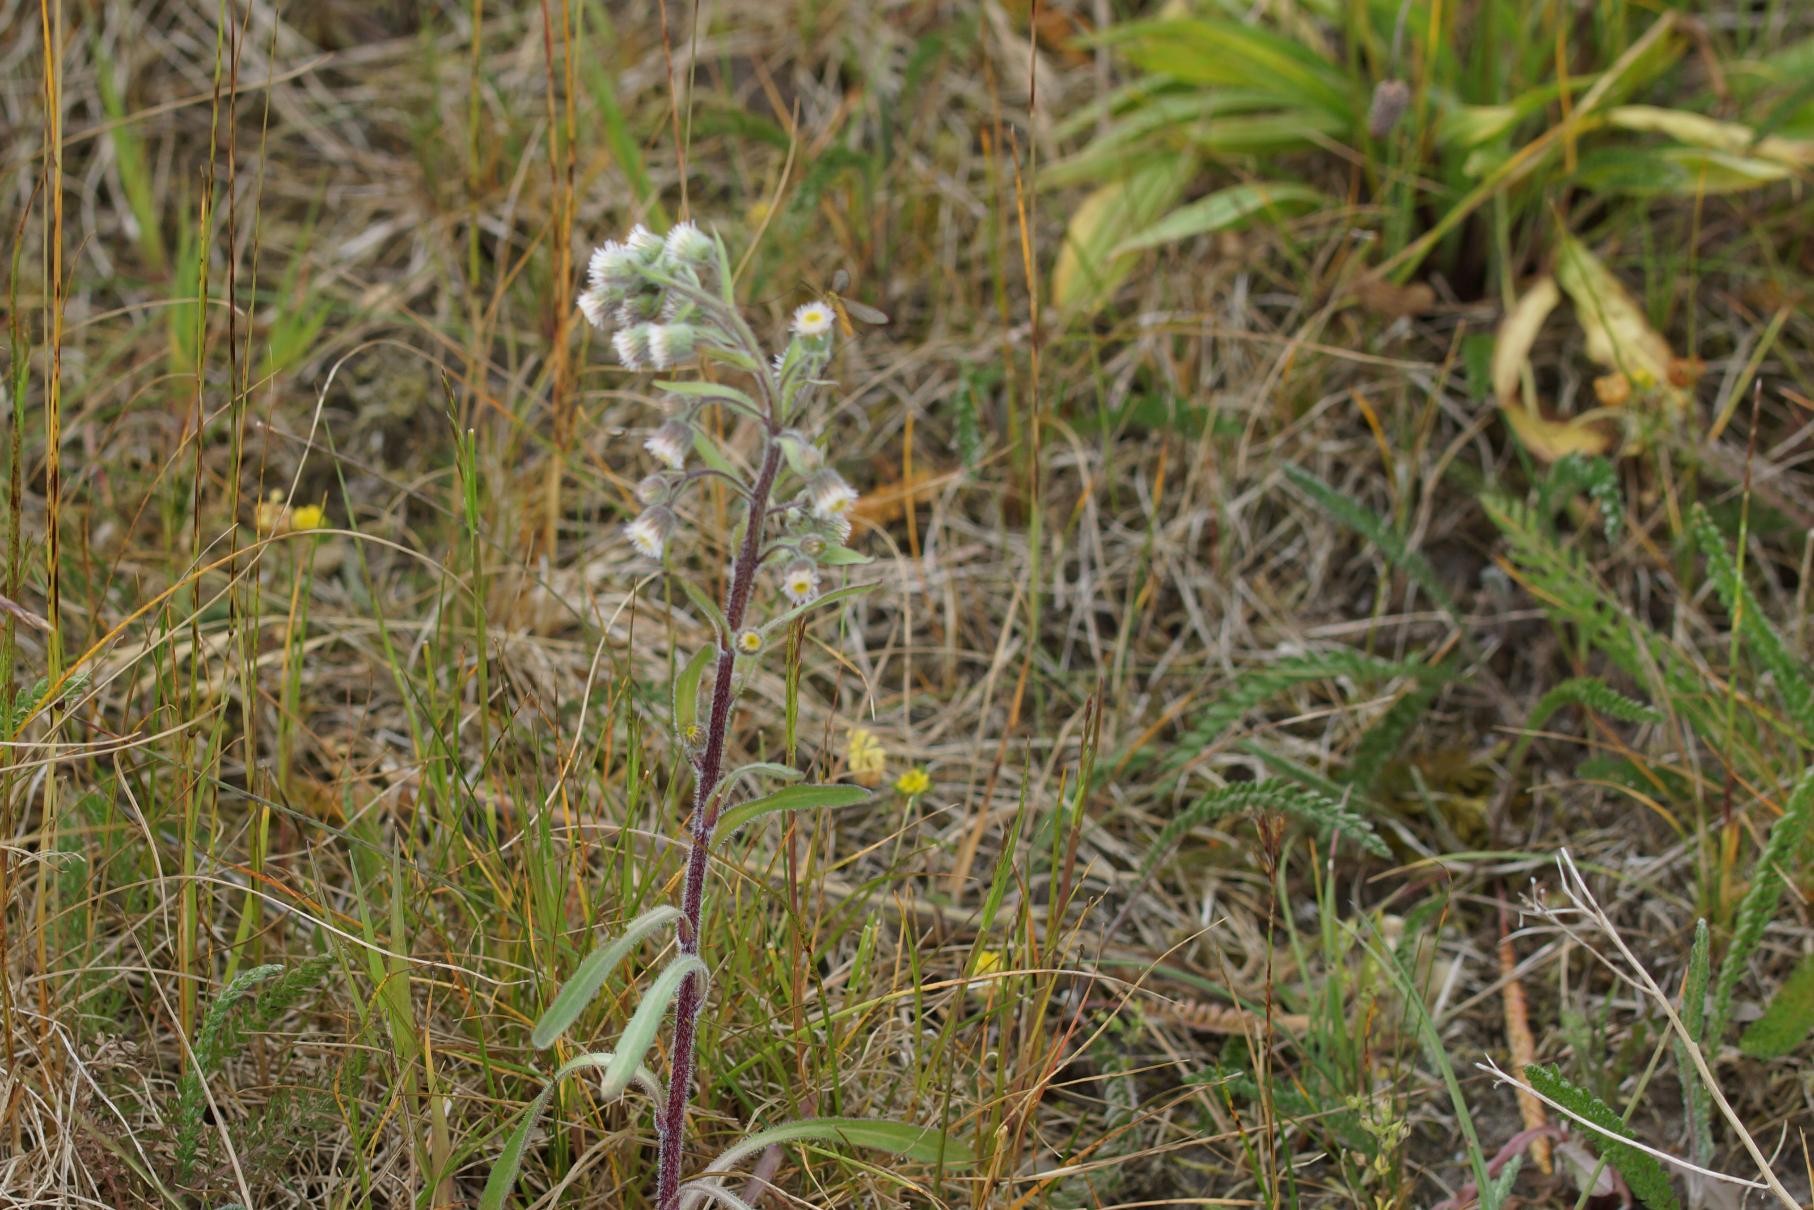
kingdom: Plantae
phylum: Tracheophyta
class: Magnoliopsida
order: Asterales
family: Asteraceae
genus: Erigeron
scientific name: Erigeron acris
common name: Bitter bakkestjerne
